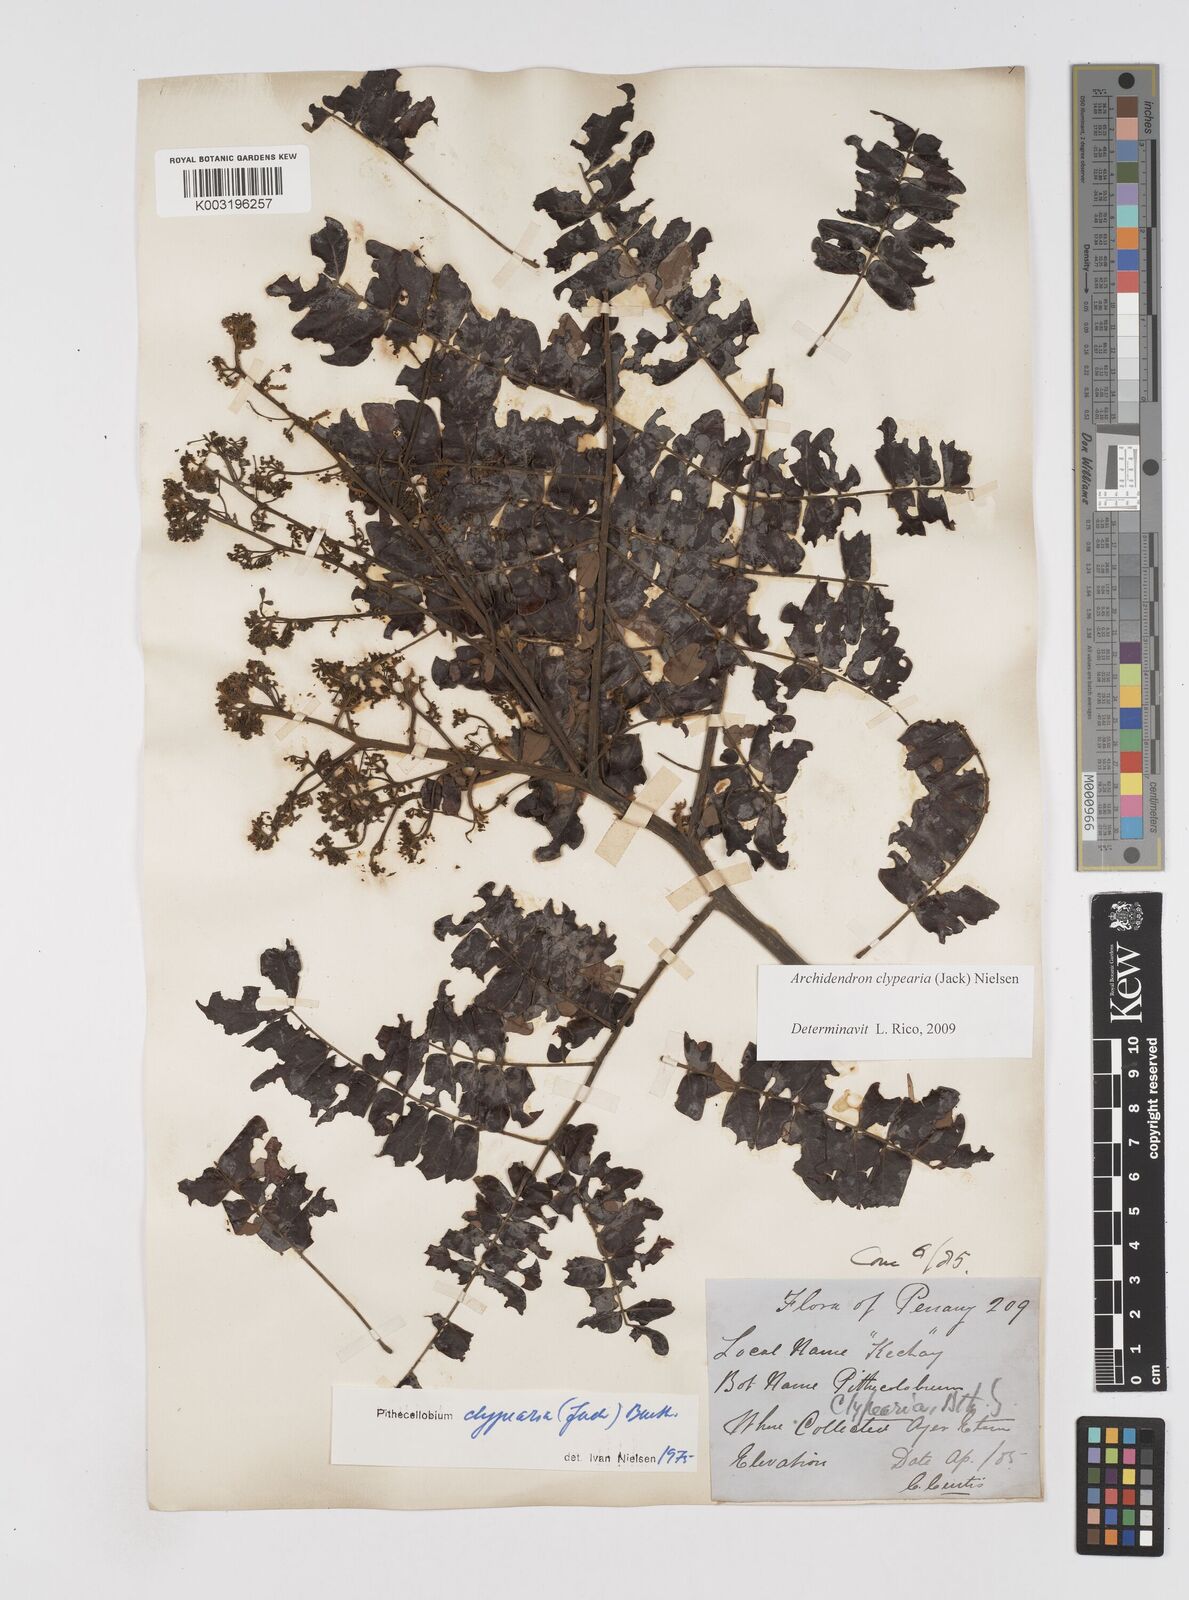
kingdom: Plantae
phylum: Tracheophyta
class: Magnoliopsida
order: Fabales
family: Fabaceae
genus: Archidendron
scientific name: Archidendron clypearia
